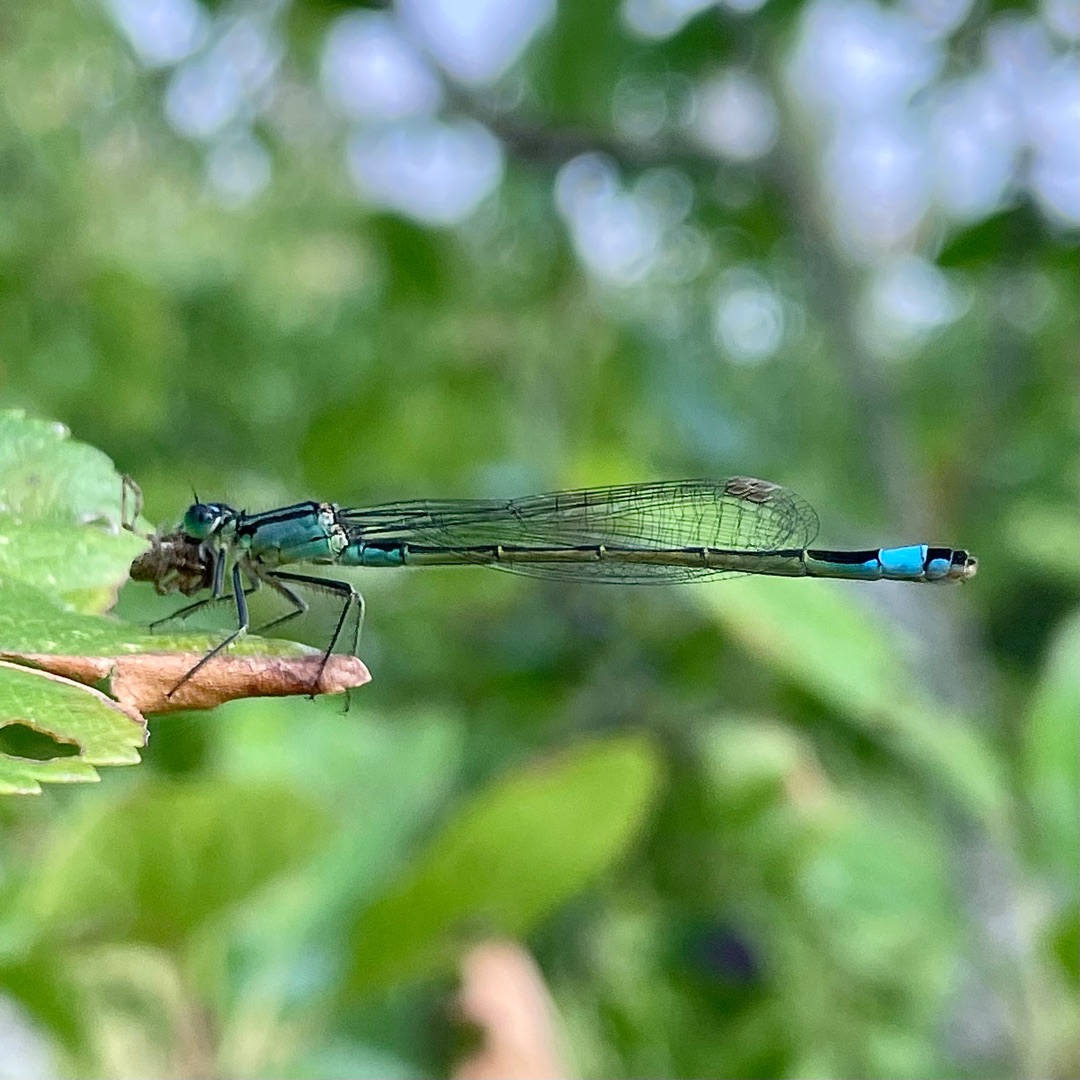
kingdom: Animalia
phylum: Arthropoda
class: Insecta
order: Odonata
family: Coenagrionidae
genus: Ischnura
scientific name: Ischnura elegans
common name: Stor farvevandnymfe
